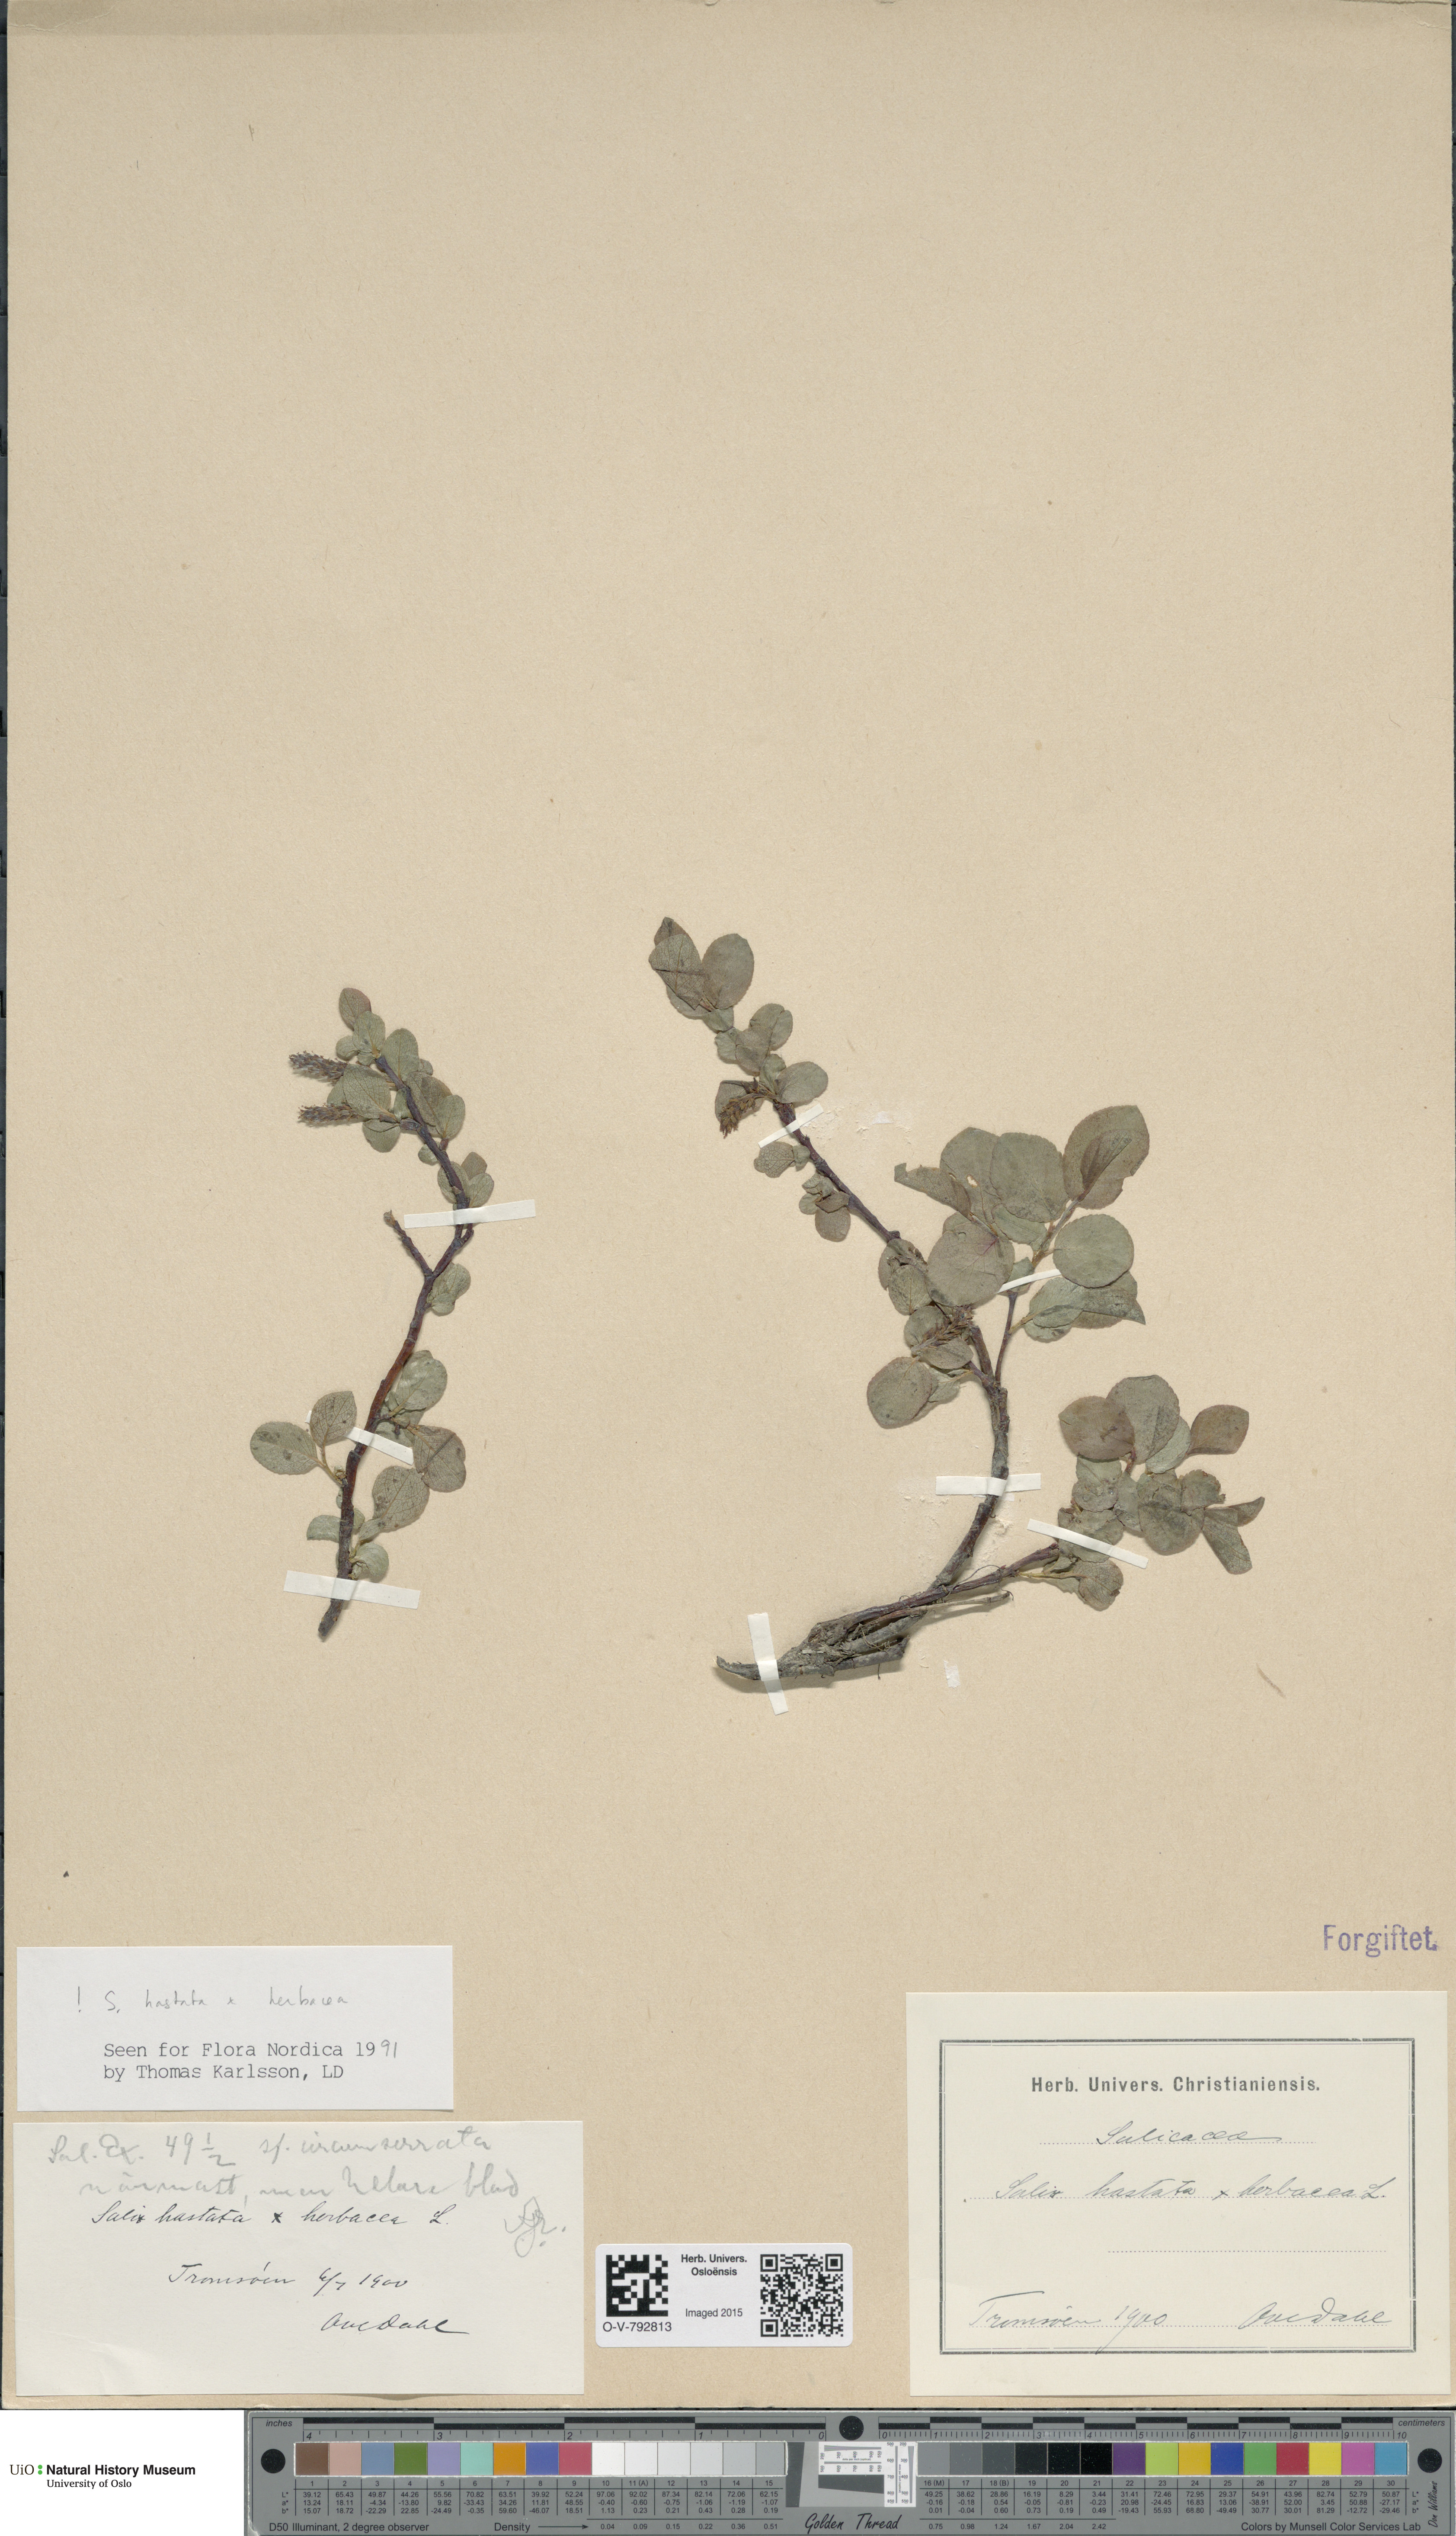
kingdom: Plantae
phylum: Tracheophyta
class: Magnoliopsida
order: Malpighiales
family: Salicaceae
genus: Salix
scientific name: Salix
